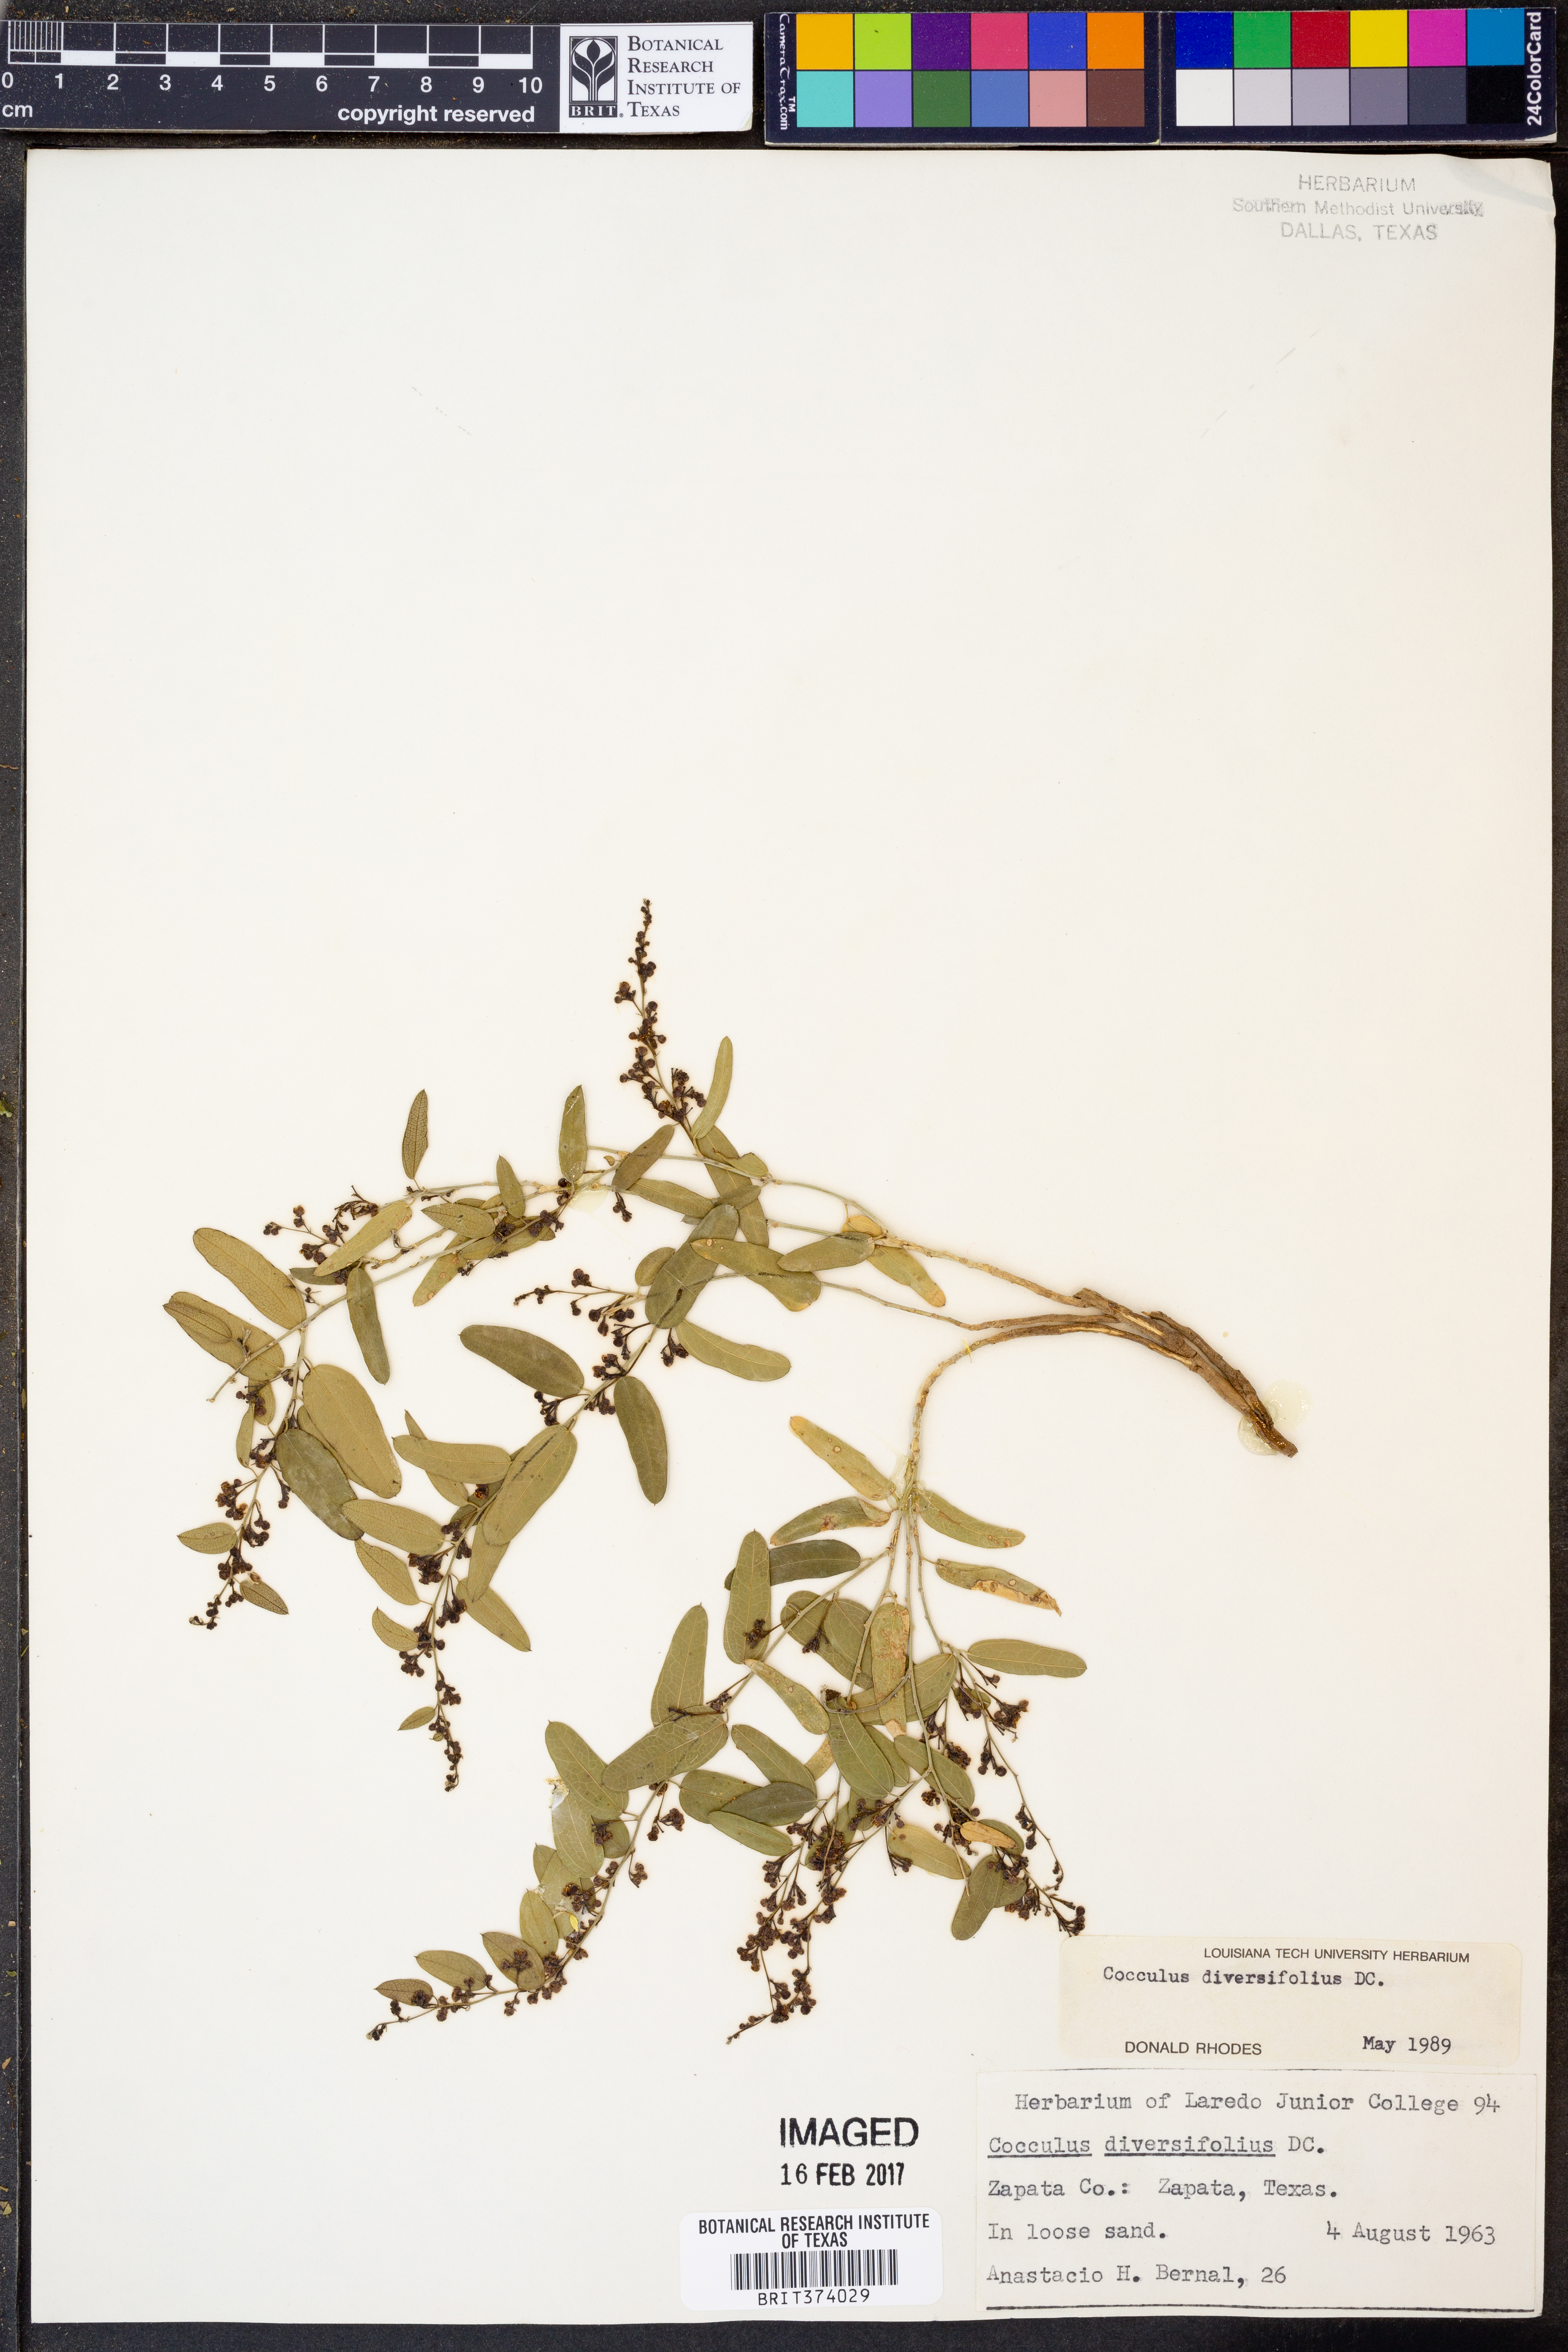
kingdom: Plantae
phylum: Tracheophyta
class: Magnoliopsida
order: Ranunculales
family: Menispermaceae
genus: Cocculus
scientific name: Cocculus diversifolius
